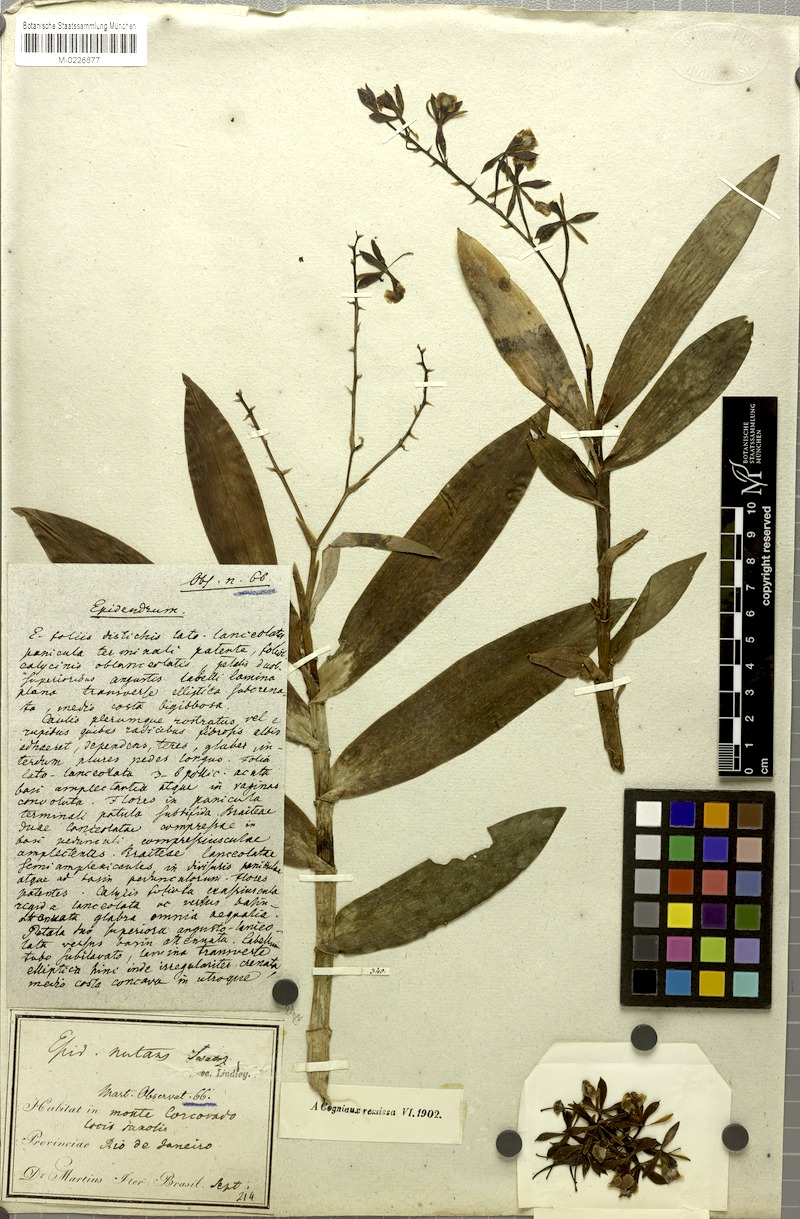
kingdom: Plantae
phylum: Tracheophyta
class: Liliopsida
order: Asparagales
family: Orchidaceae
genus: Epidendrum
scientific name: Epidendrum nutans
